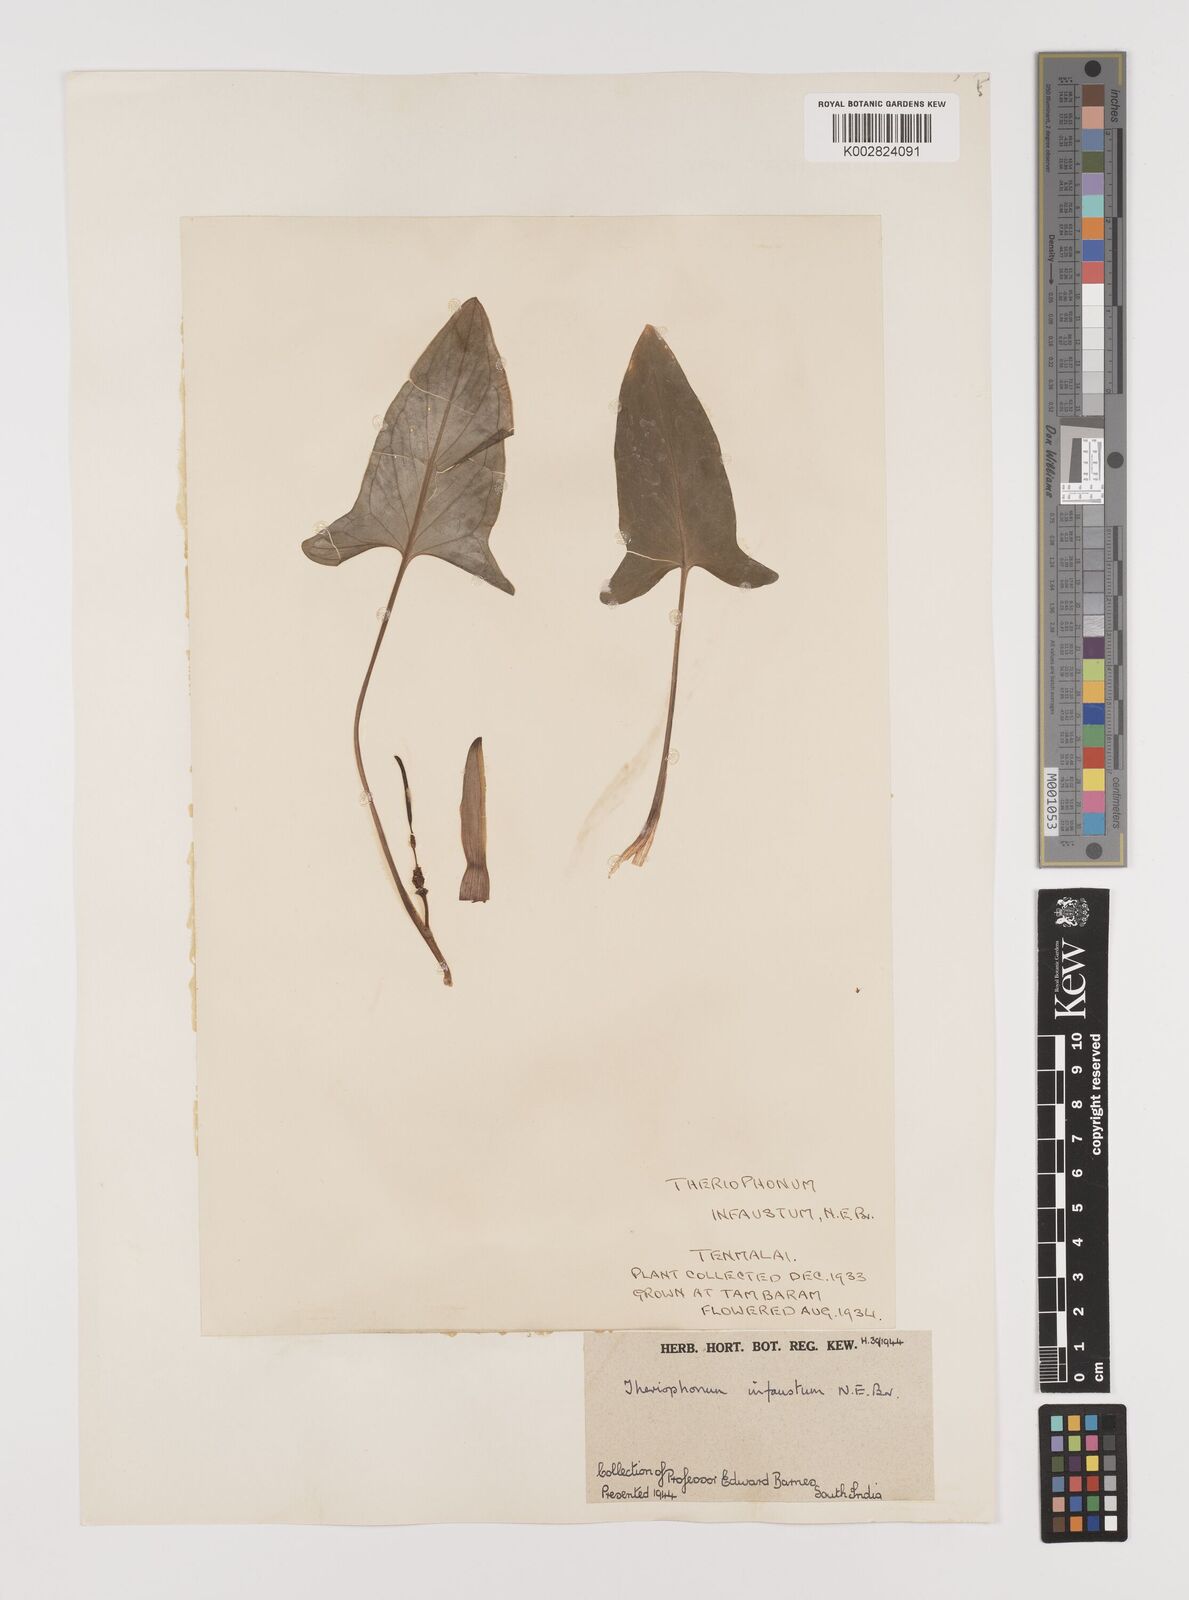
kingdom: Plantae
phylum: Tracheophyta
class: Liliopsida
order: Alismatales
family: Araceae
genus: Theriophonum
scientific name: Theriophonum infaustum
